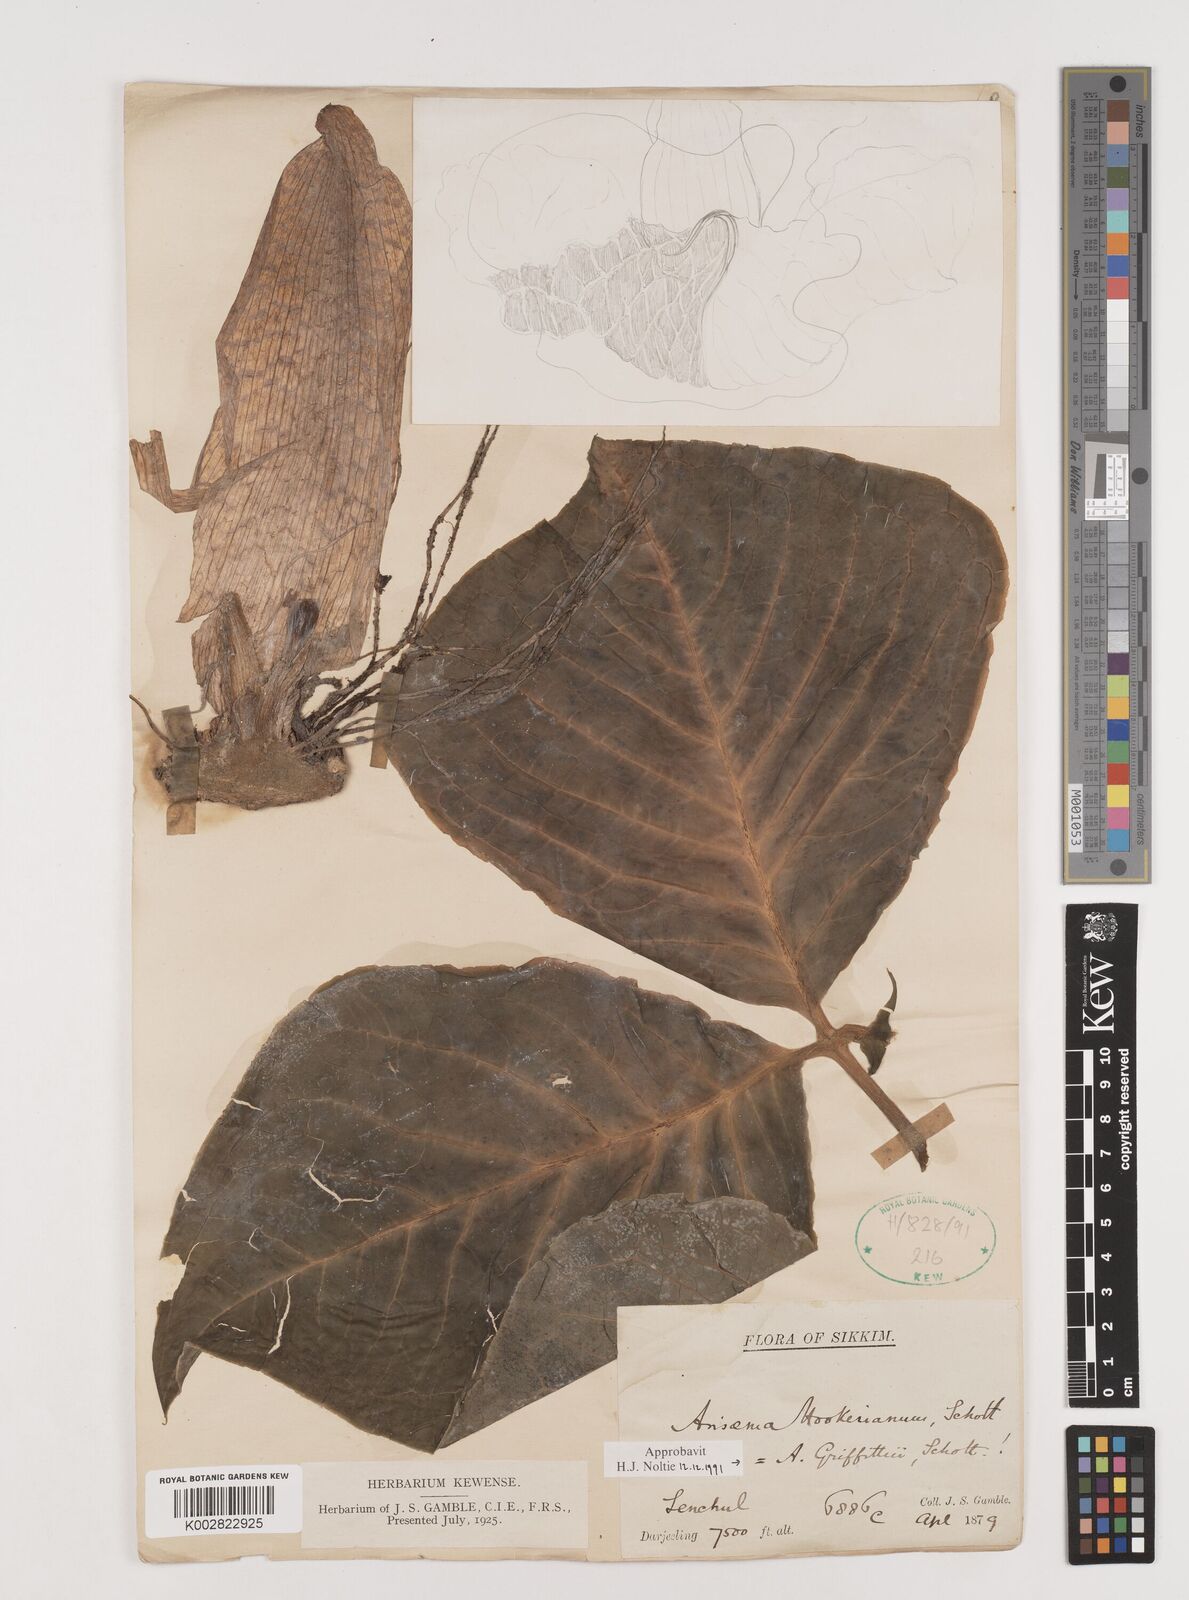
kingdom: Plantae
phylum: Tracheophyta
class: Liliopsida
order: Alismatales
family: Araceae
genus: Arisaema
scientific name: Arisaema griffithii
